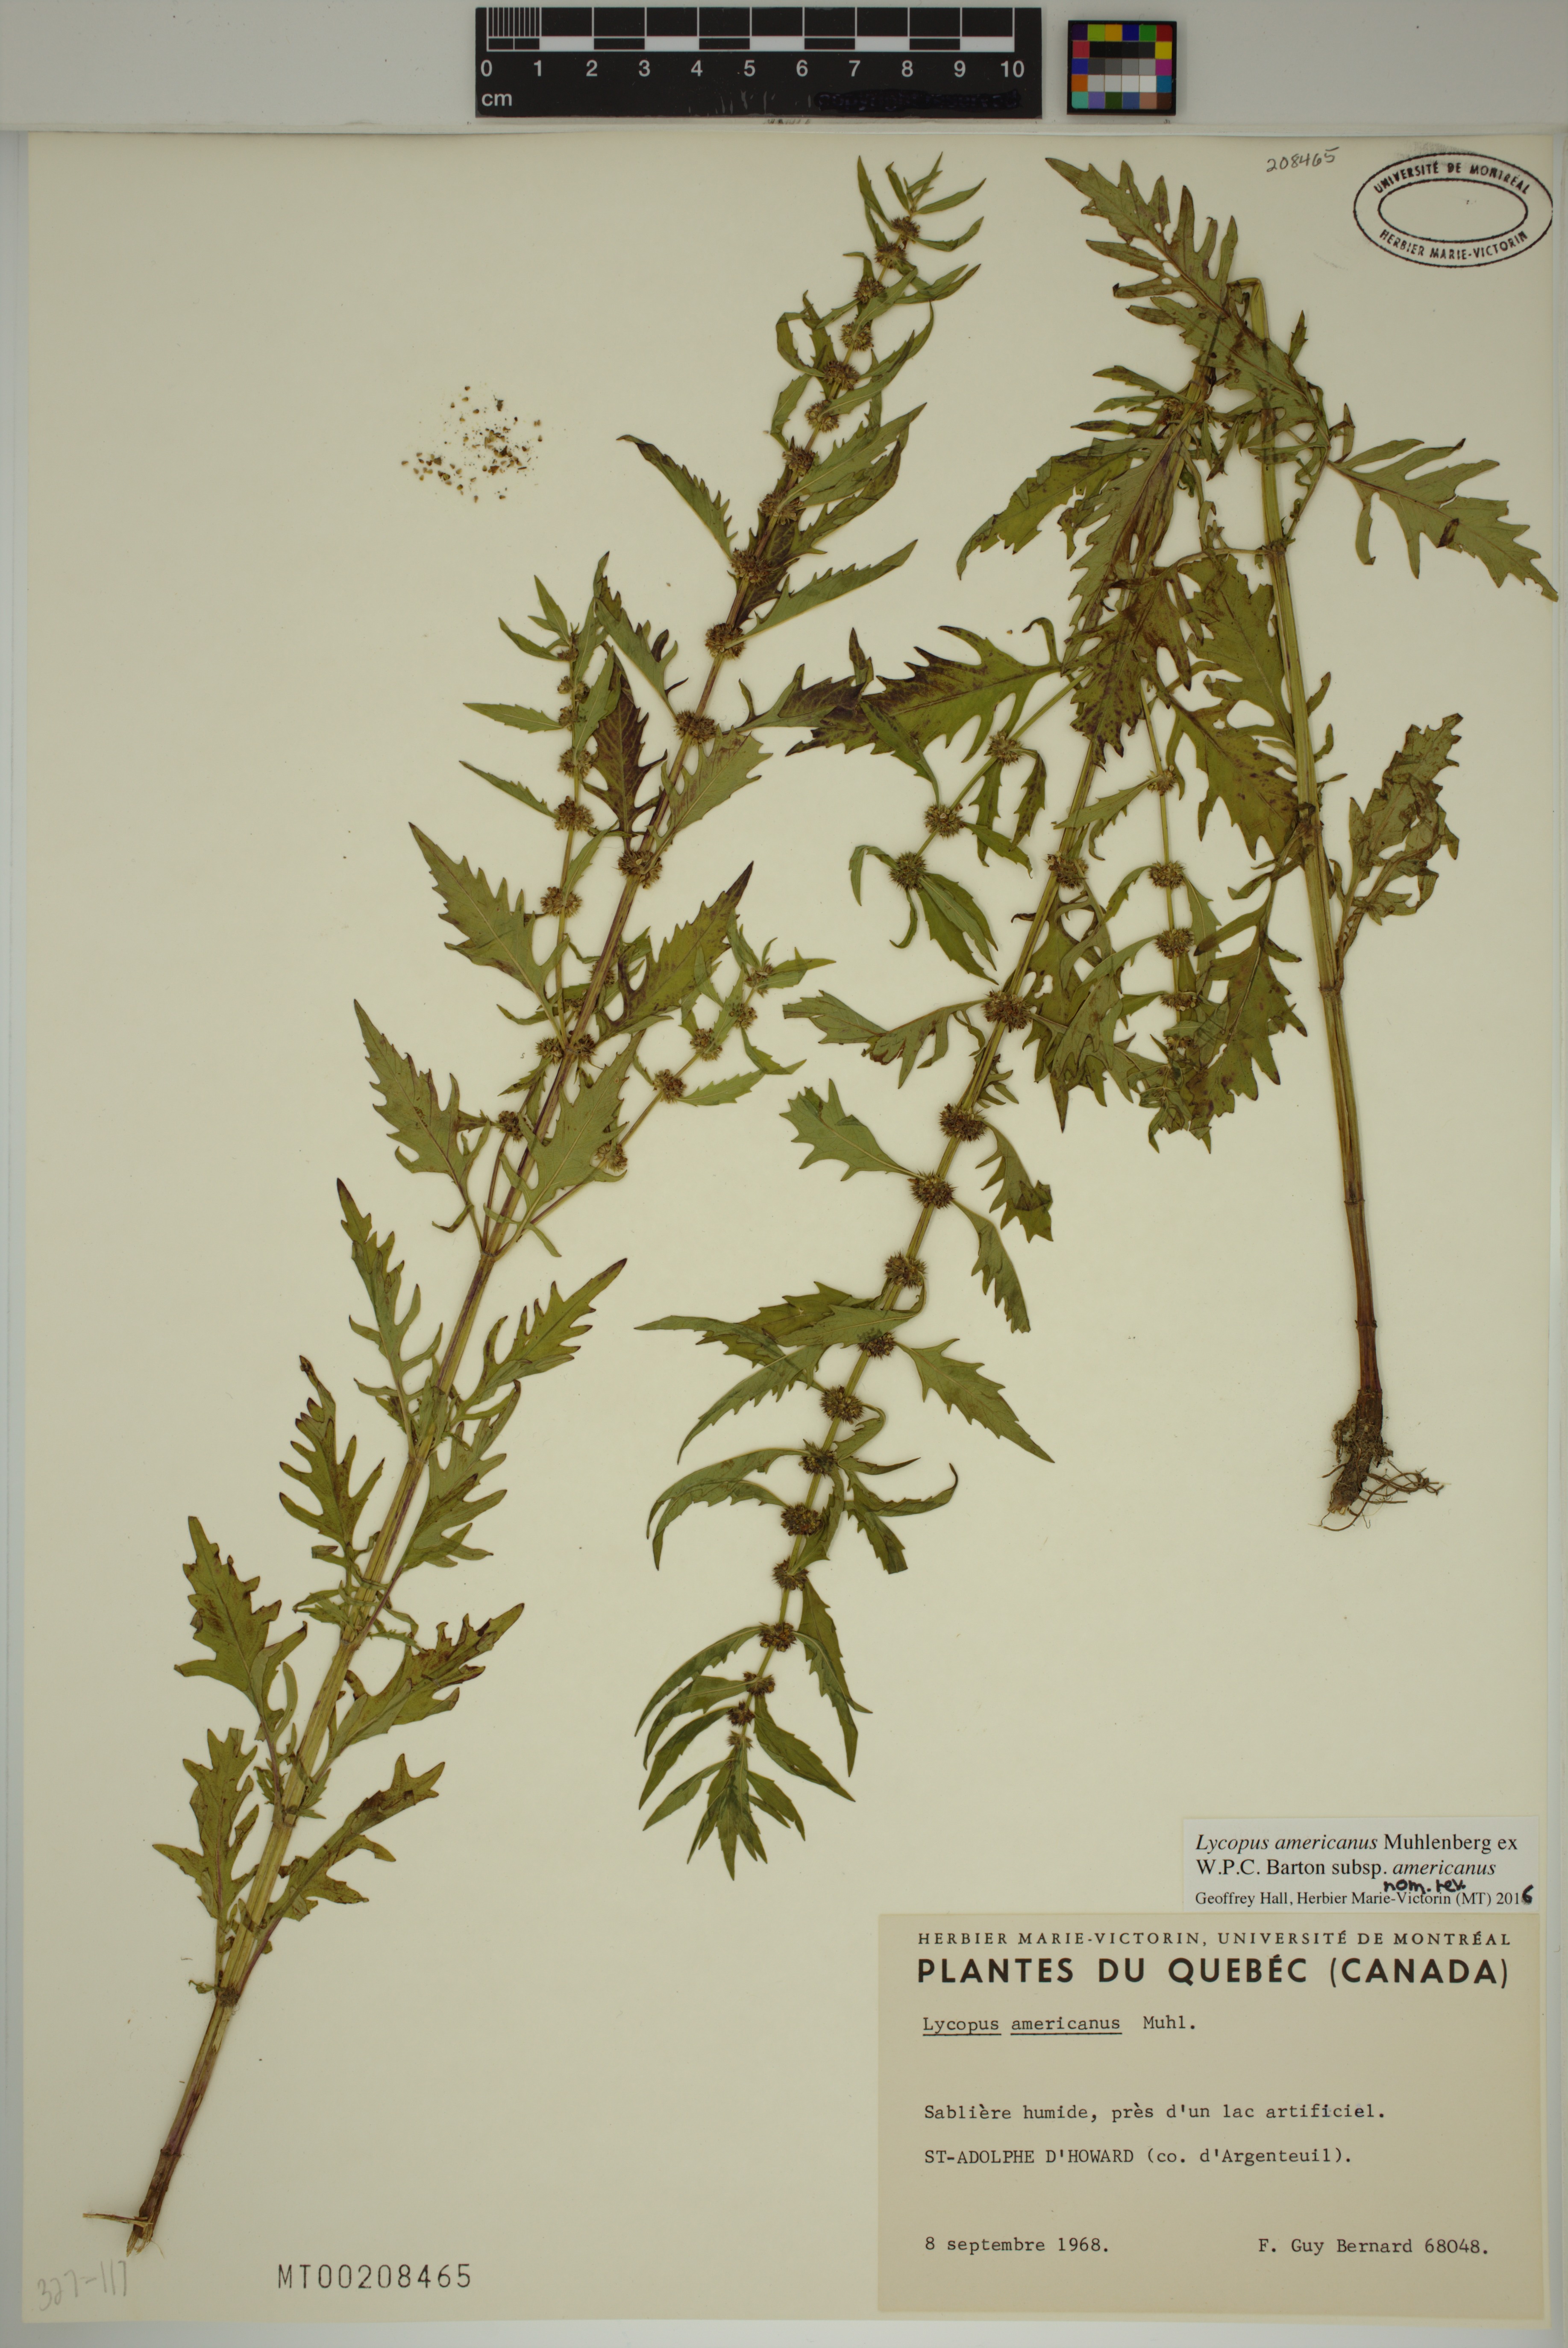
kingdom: Plantae
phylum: Tracheophyta
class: Magnoliopsida
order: Lamiales
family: Lamiaceae
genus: Lycopus
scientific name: Lycopus americanus
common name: American bugleweed
